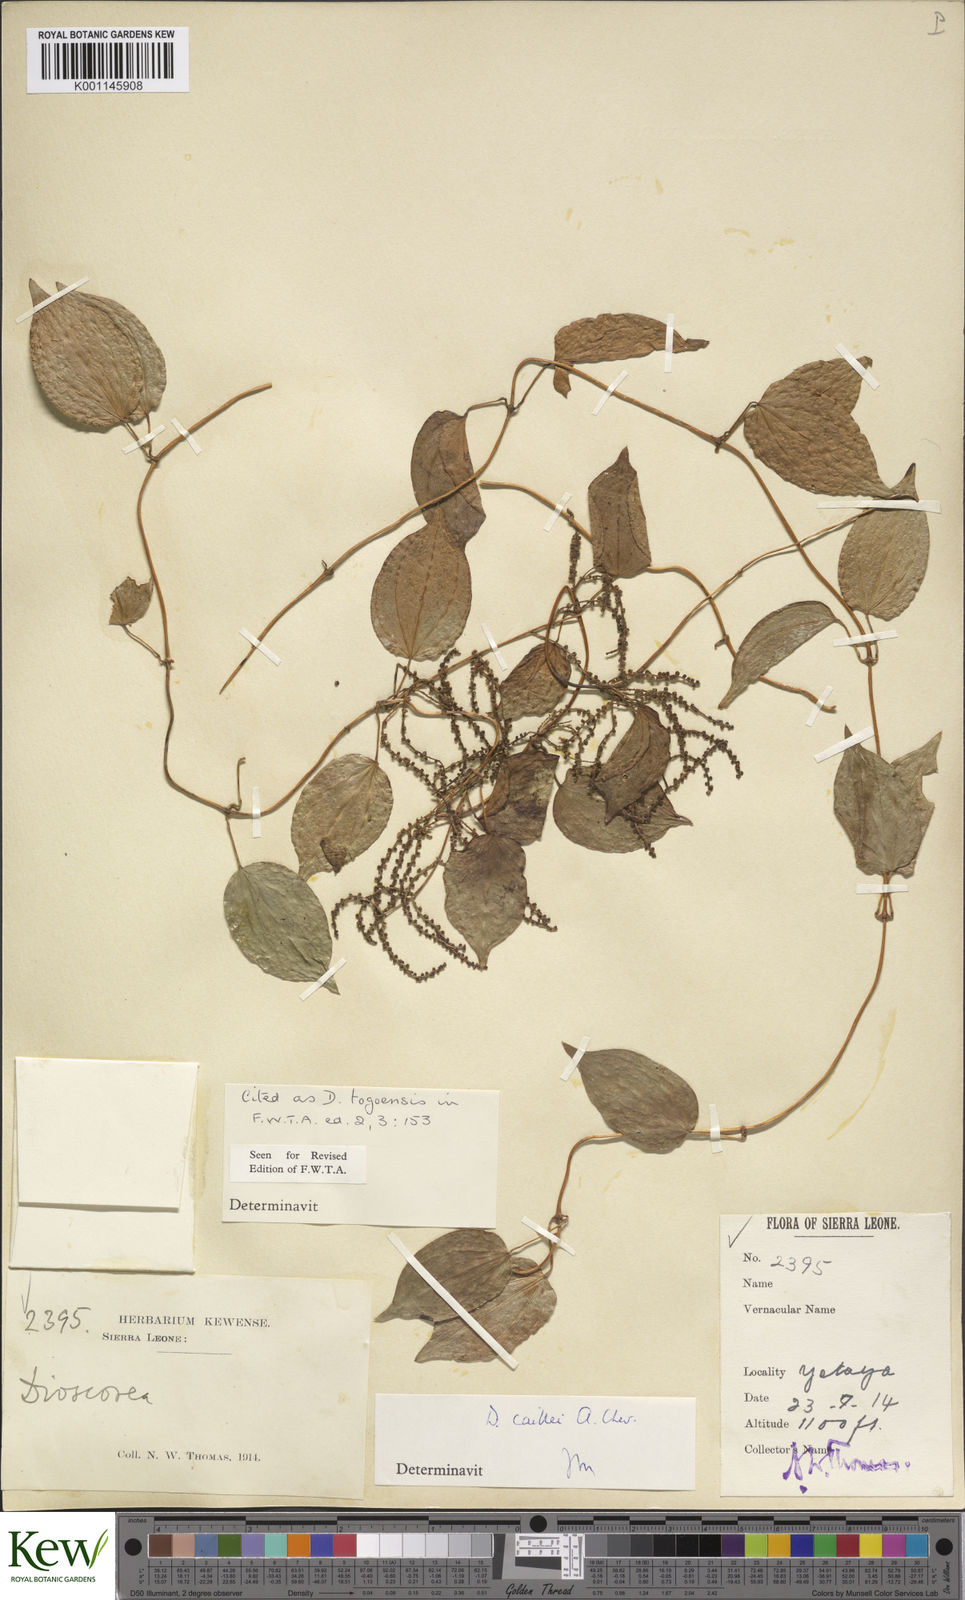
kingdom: Plantae
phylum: Tracheophyta
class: Liliopsida
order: Dioscoreales
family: Dioscoreaceae
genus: Dioscorea
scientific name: Dioscorea togoensis
